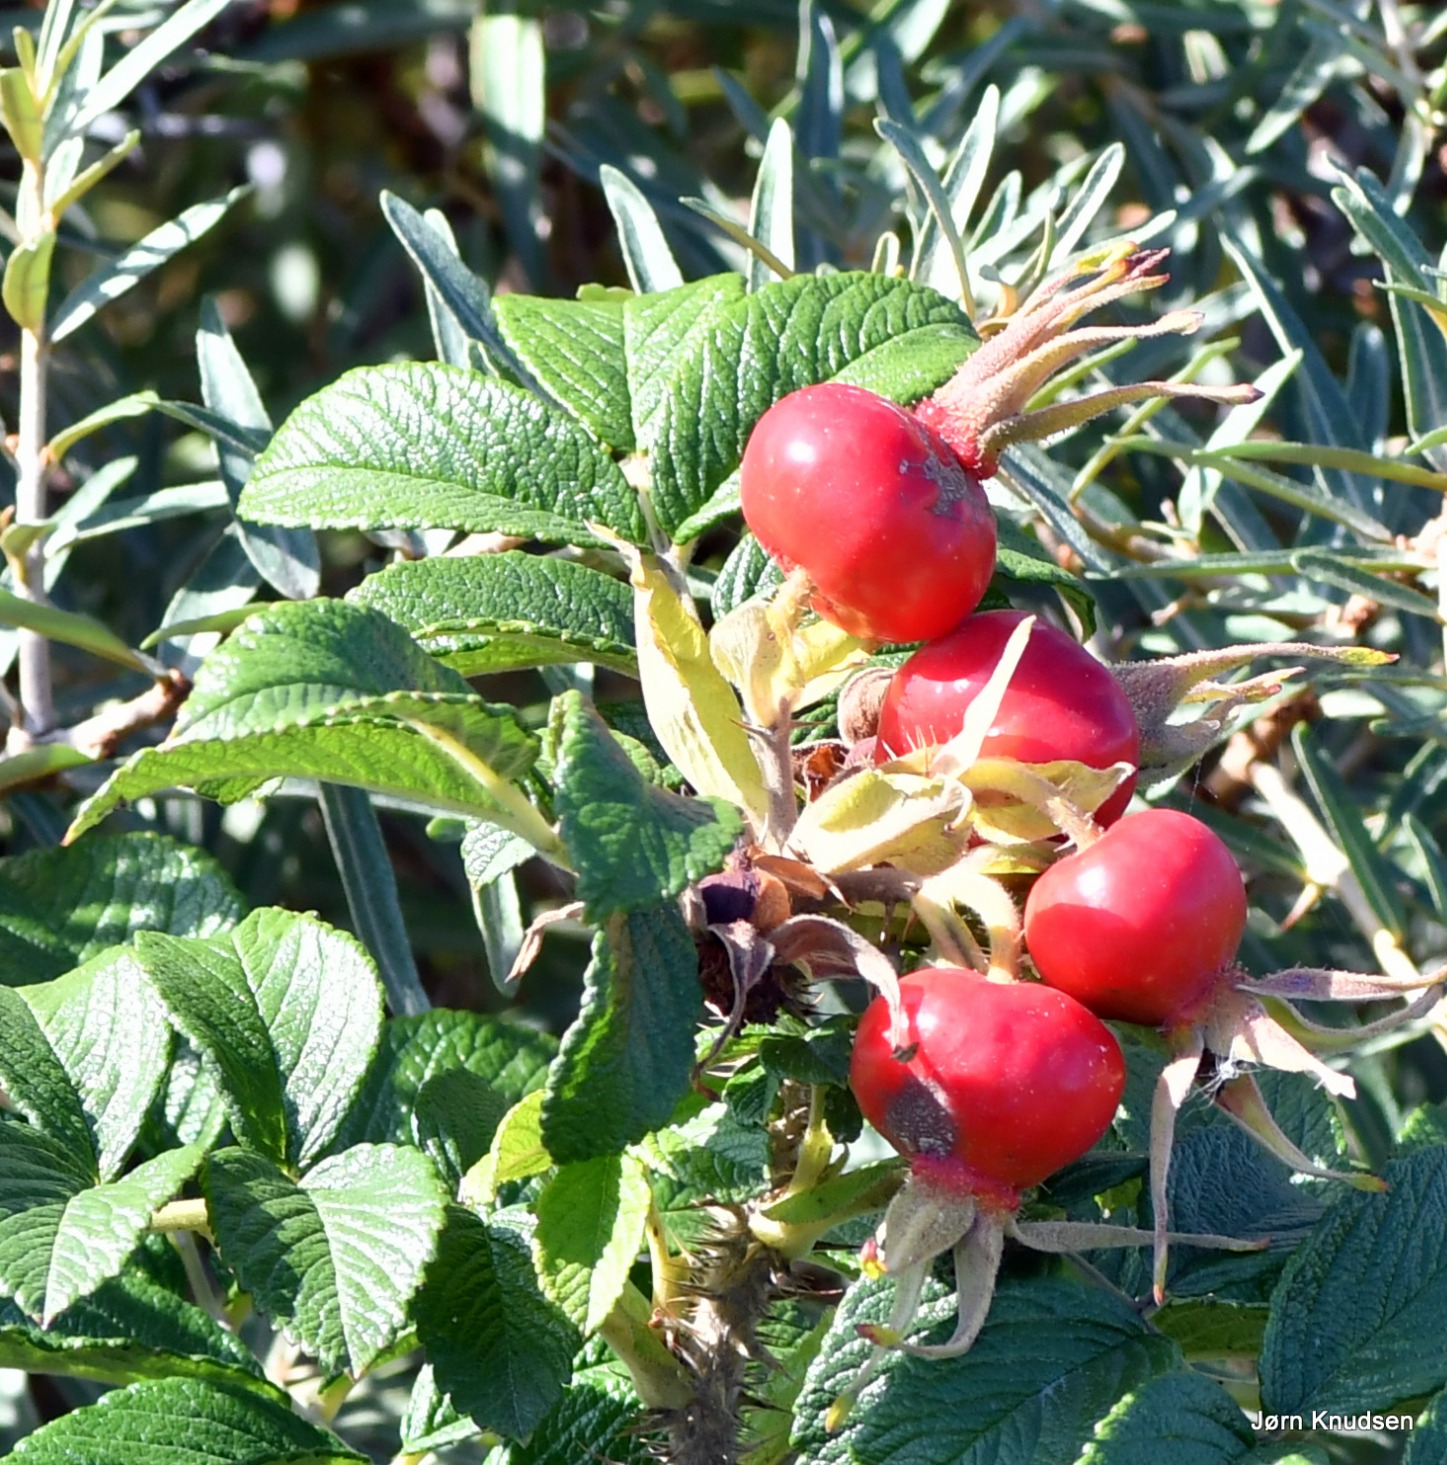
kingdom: Plantae
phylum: Tracheophyta
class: Magnoliopsida
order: Rosales
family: Rosaceae
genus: Rosa
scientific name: Rosa rugosa
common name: Rynket rose
